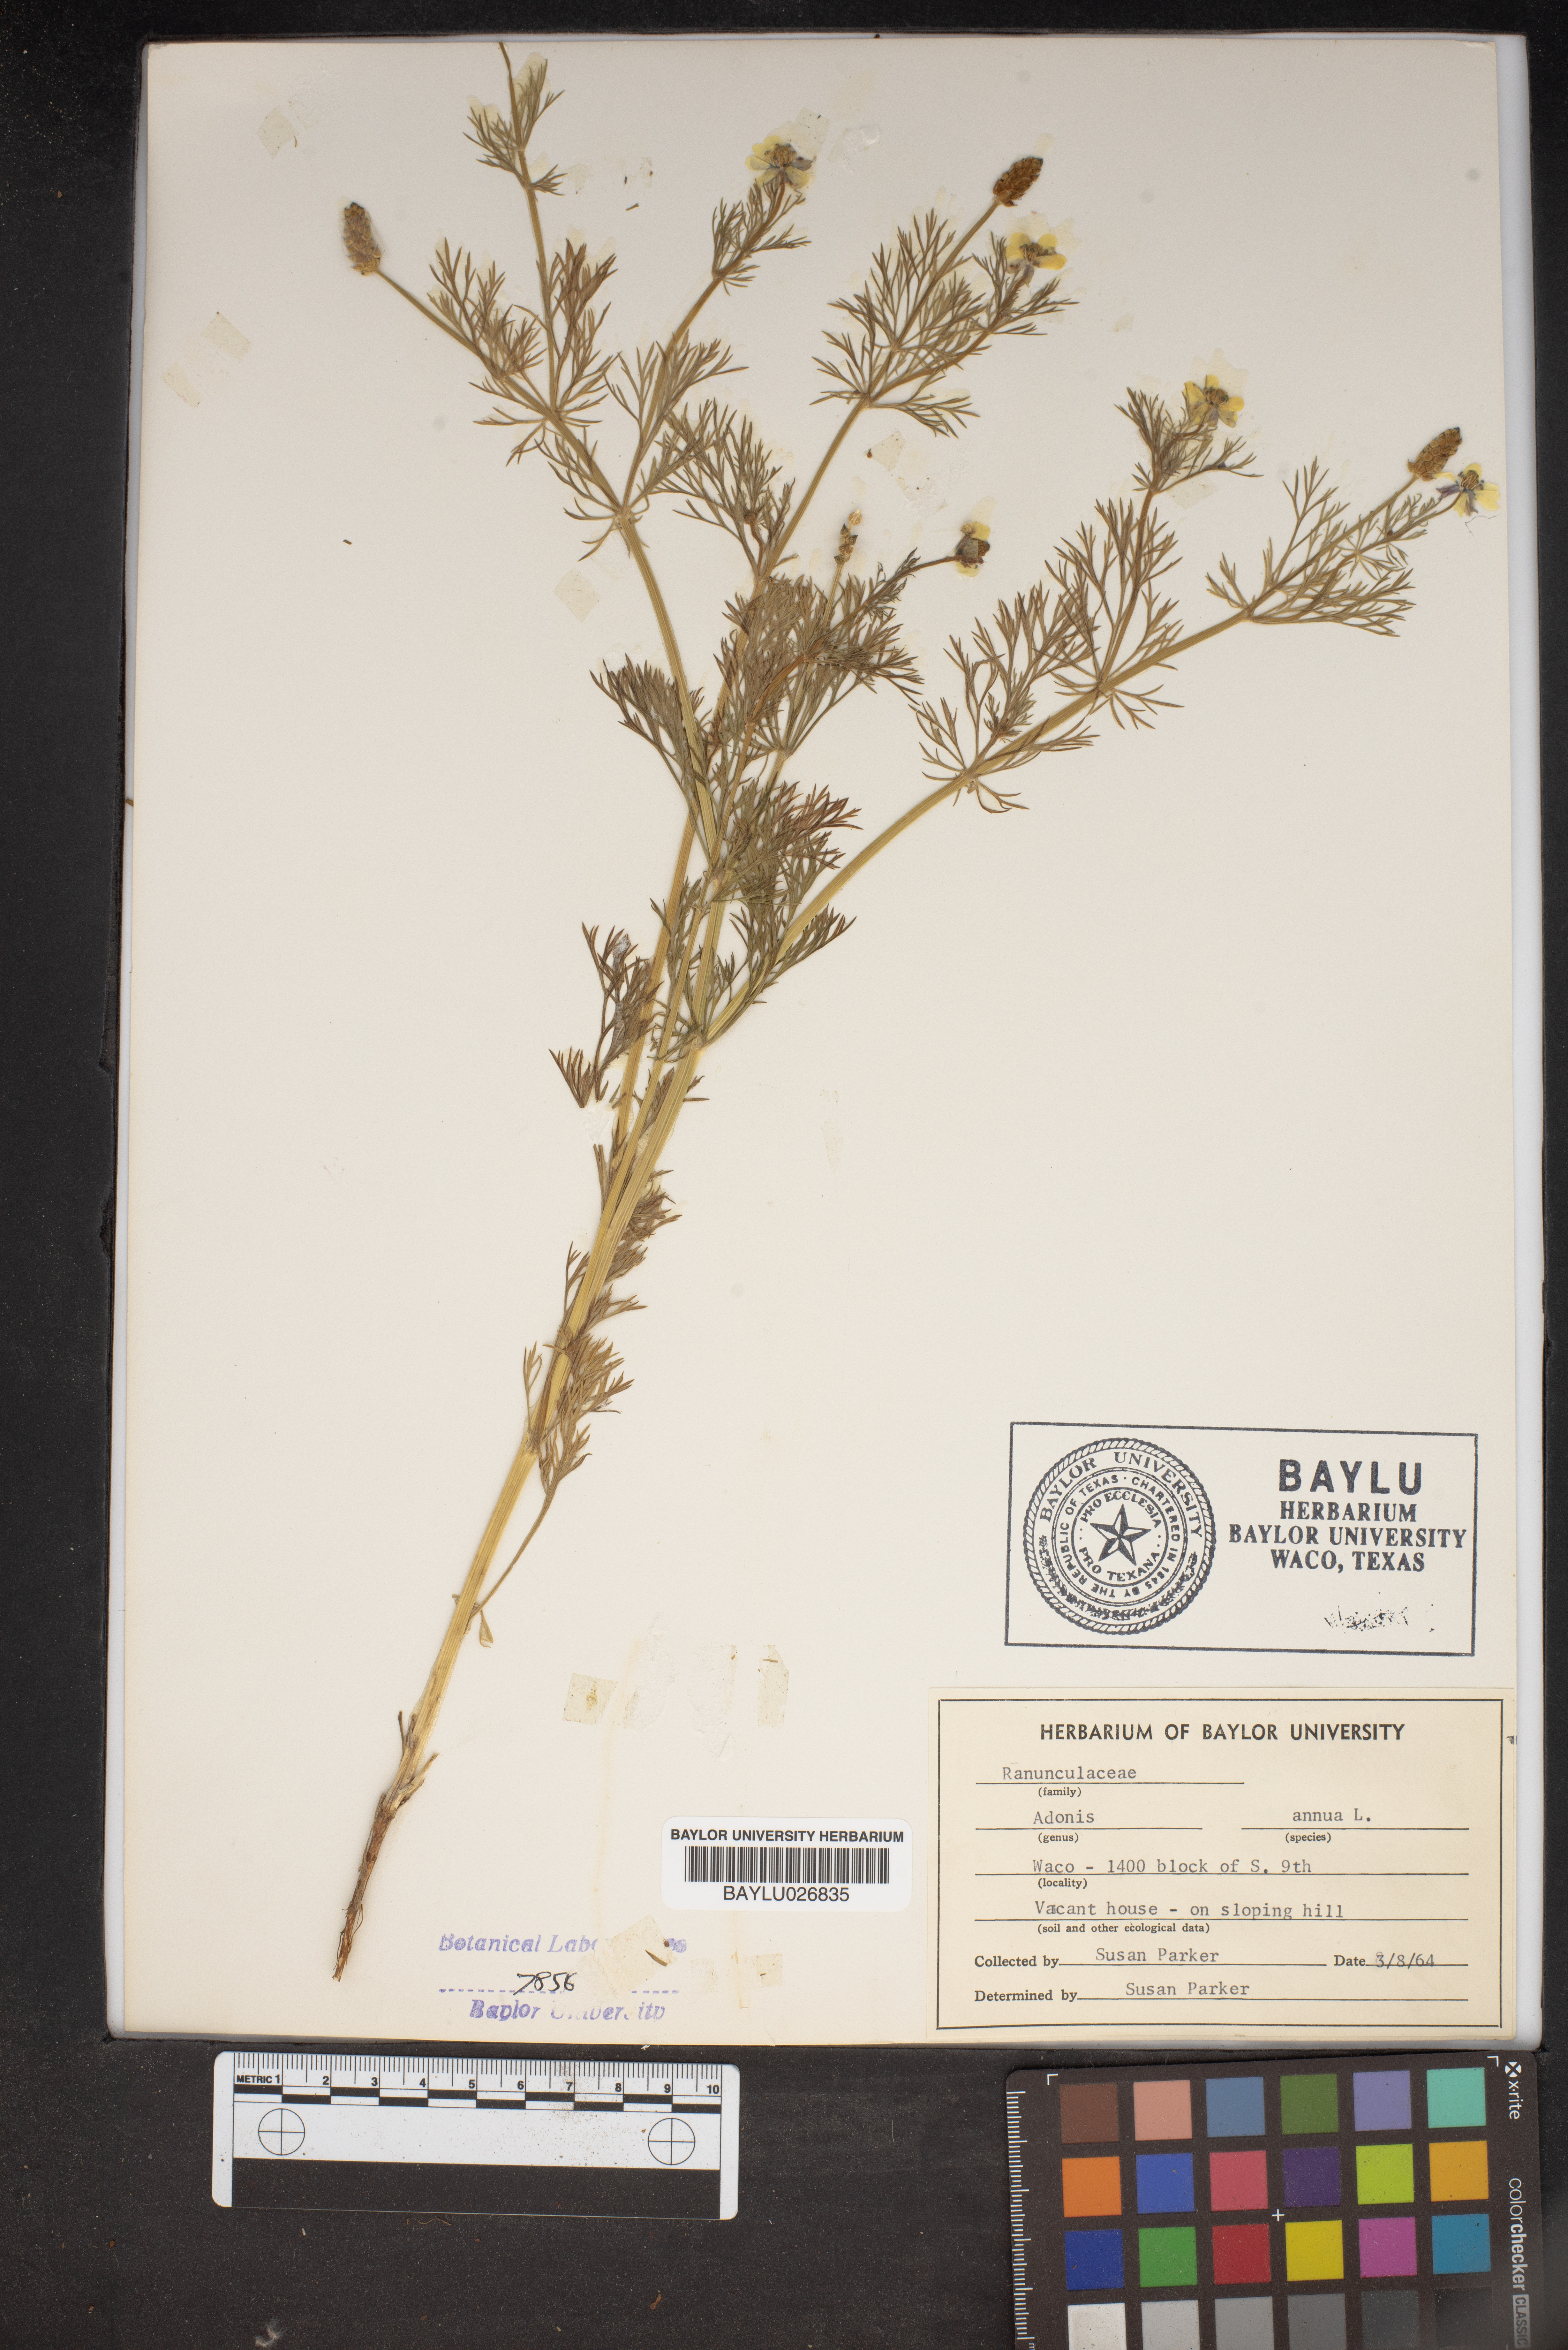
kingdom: Plantae
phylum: Tracheophyta
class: Magnoliopsida
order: Ranunculales
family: Ranunculaceae
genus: Adonis
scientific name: Adonis annua
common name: Pheasant's-eye
